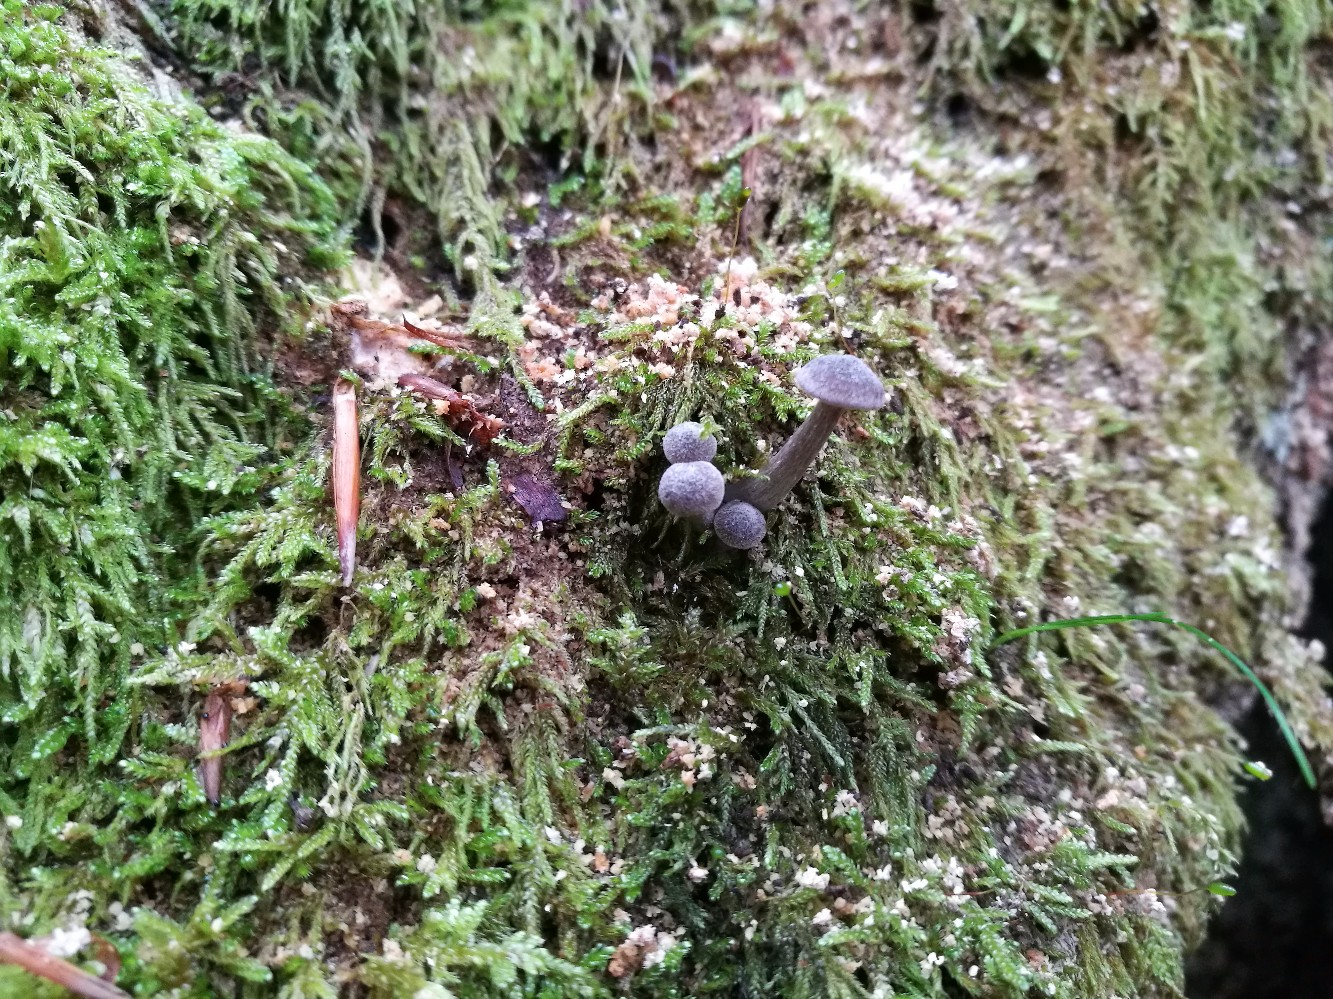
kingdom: Fungi
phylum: Basidiomycota
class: Agaricomycetes
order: Agaricales
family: Entolomataceae
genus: Entoloma
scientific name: Entoloma
